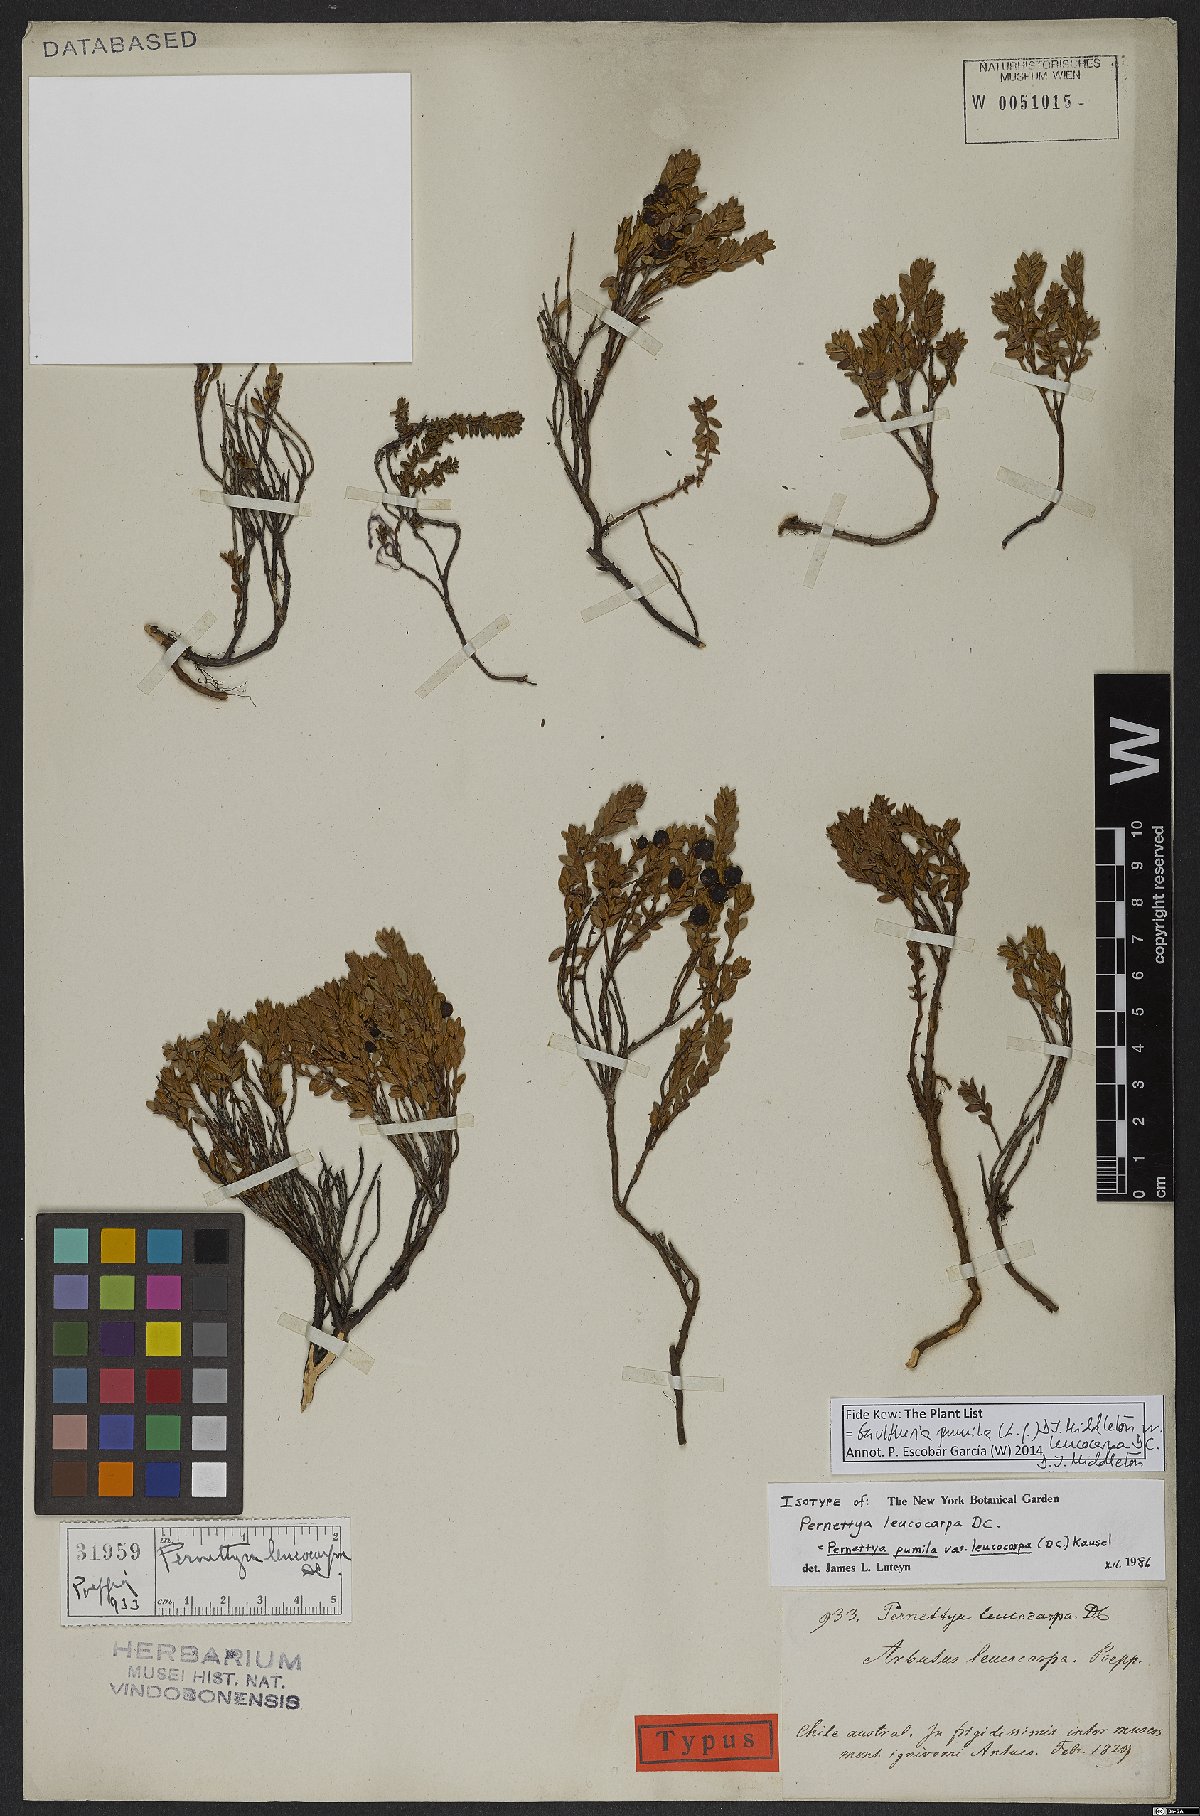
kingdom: Plantae
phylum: Tracheophyta
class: Magnoliopsida
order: Ericales
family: Ericaceae
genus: Gaultheria
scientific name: Gaultheria pumila
